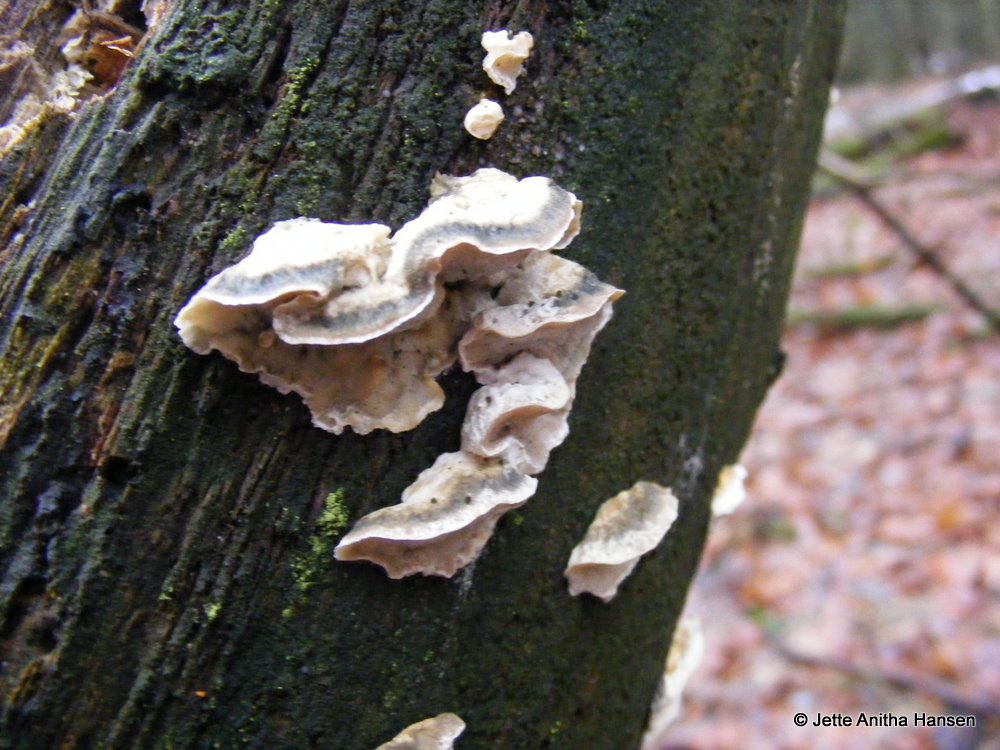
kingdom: Fungi
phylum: Basidiomycota
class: Agaricomycetes
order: Polyporales
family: Polyporaceae
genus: Cyanosporus
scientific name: Cyanosporus alni
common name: blegblå kødporesvamp
